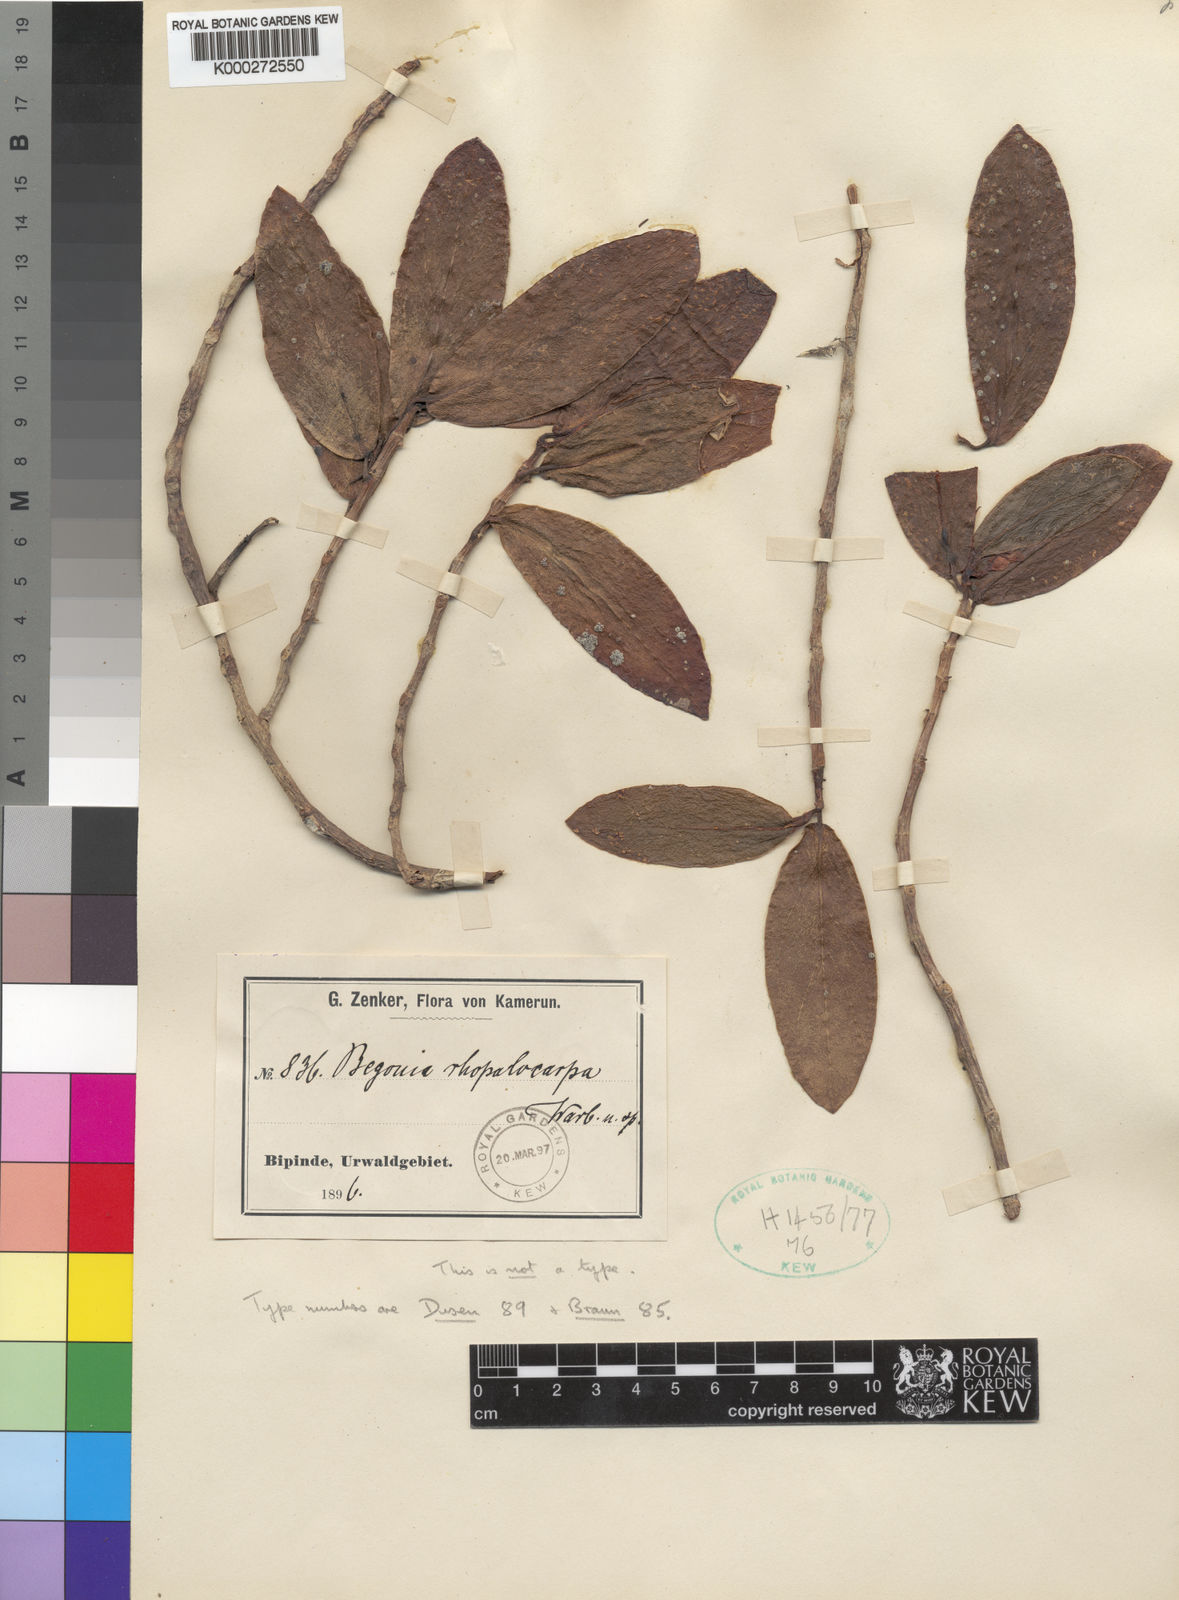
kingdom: Plantae
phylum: Tracheophyta
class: Magnoliopsida
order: Cucurbitales
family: Begoniaceae
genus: Begonia
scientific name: Begonia loranthoides
